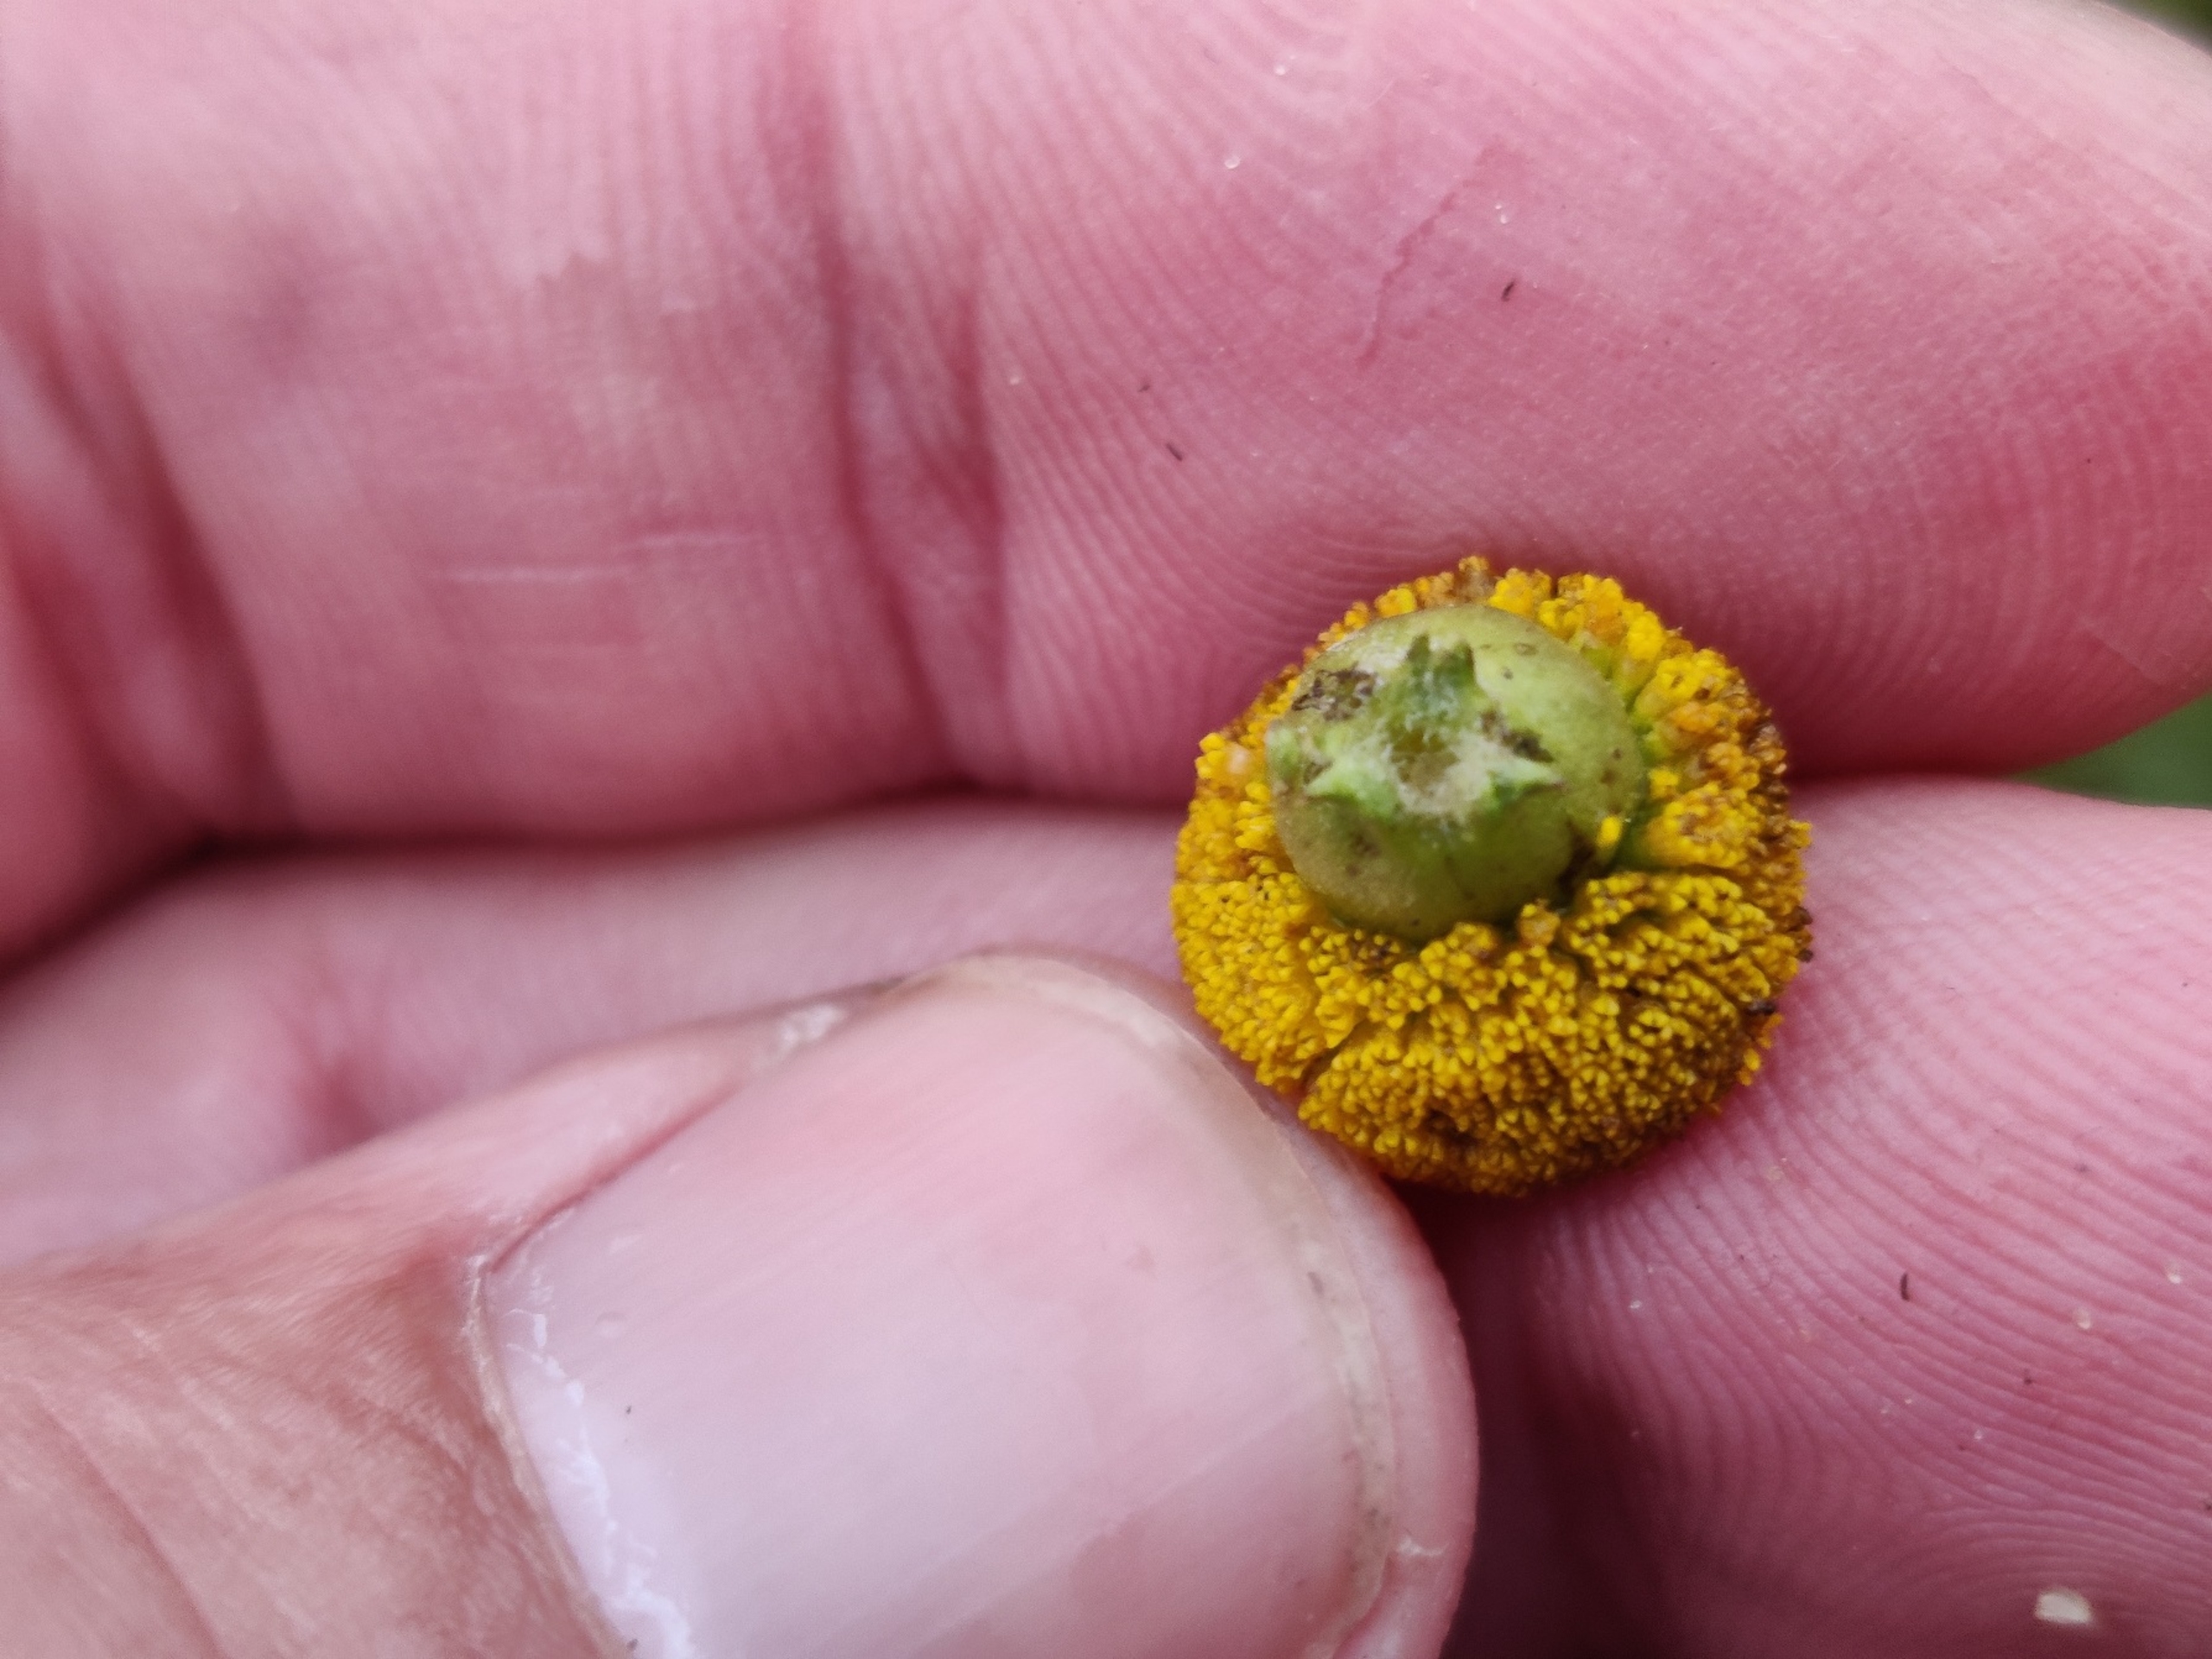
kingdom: Animalia
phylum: Arthropoda
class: Insecta
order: Diptera
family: Cecidomyiidae
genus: Rhopalomyia
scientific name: Rhopalomyia tanaceticolus
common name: Rejnfangalmyg
